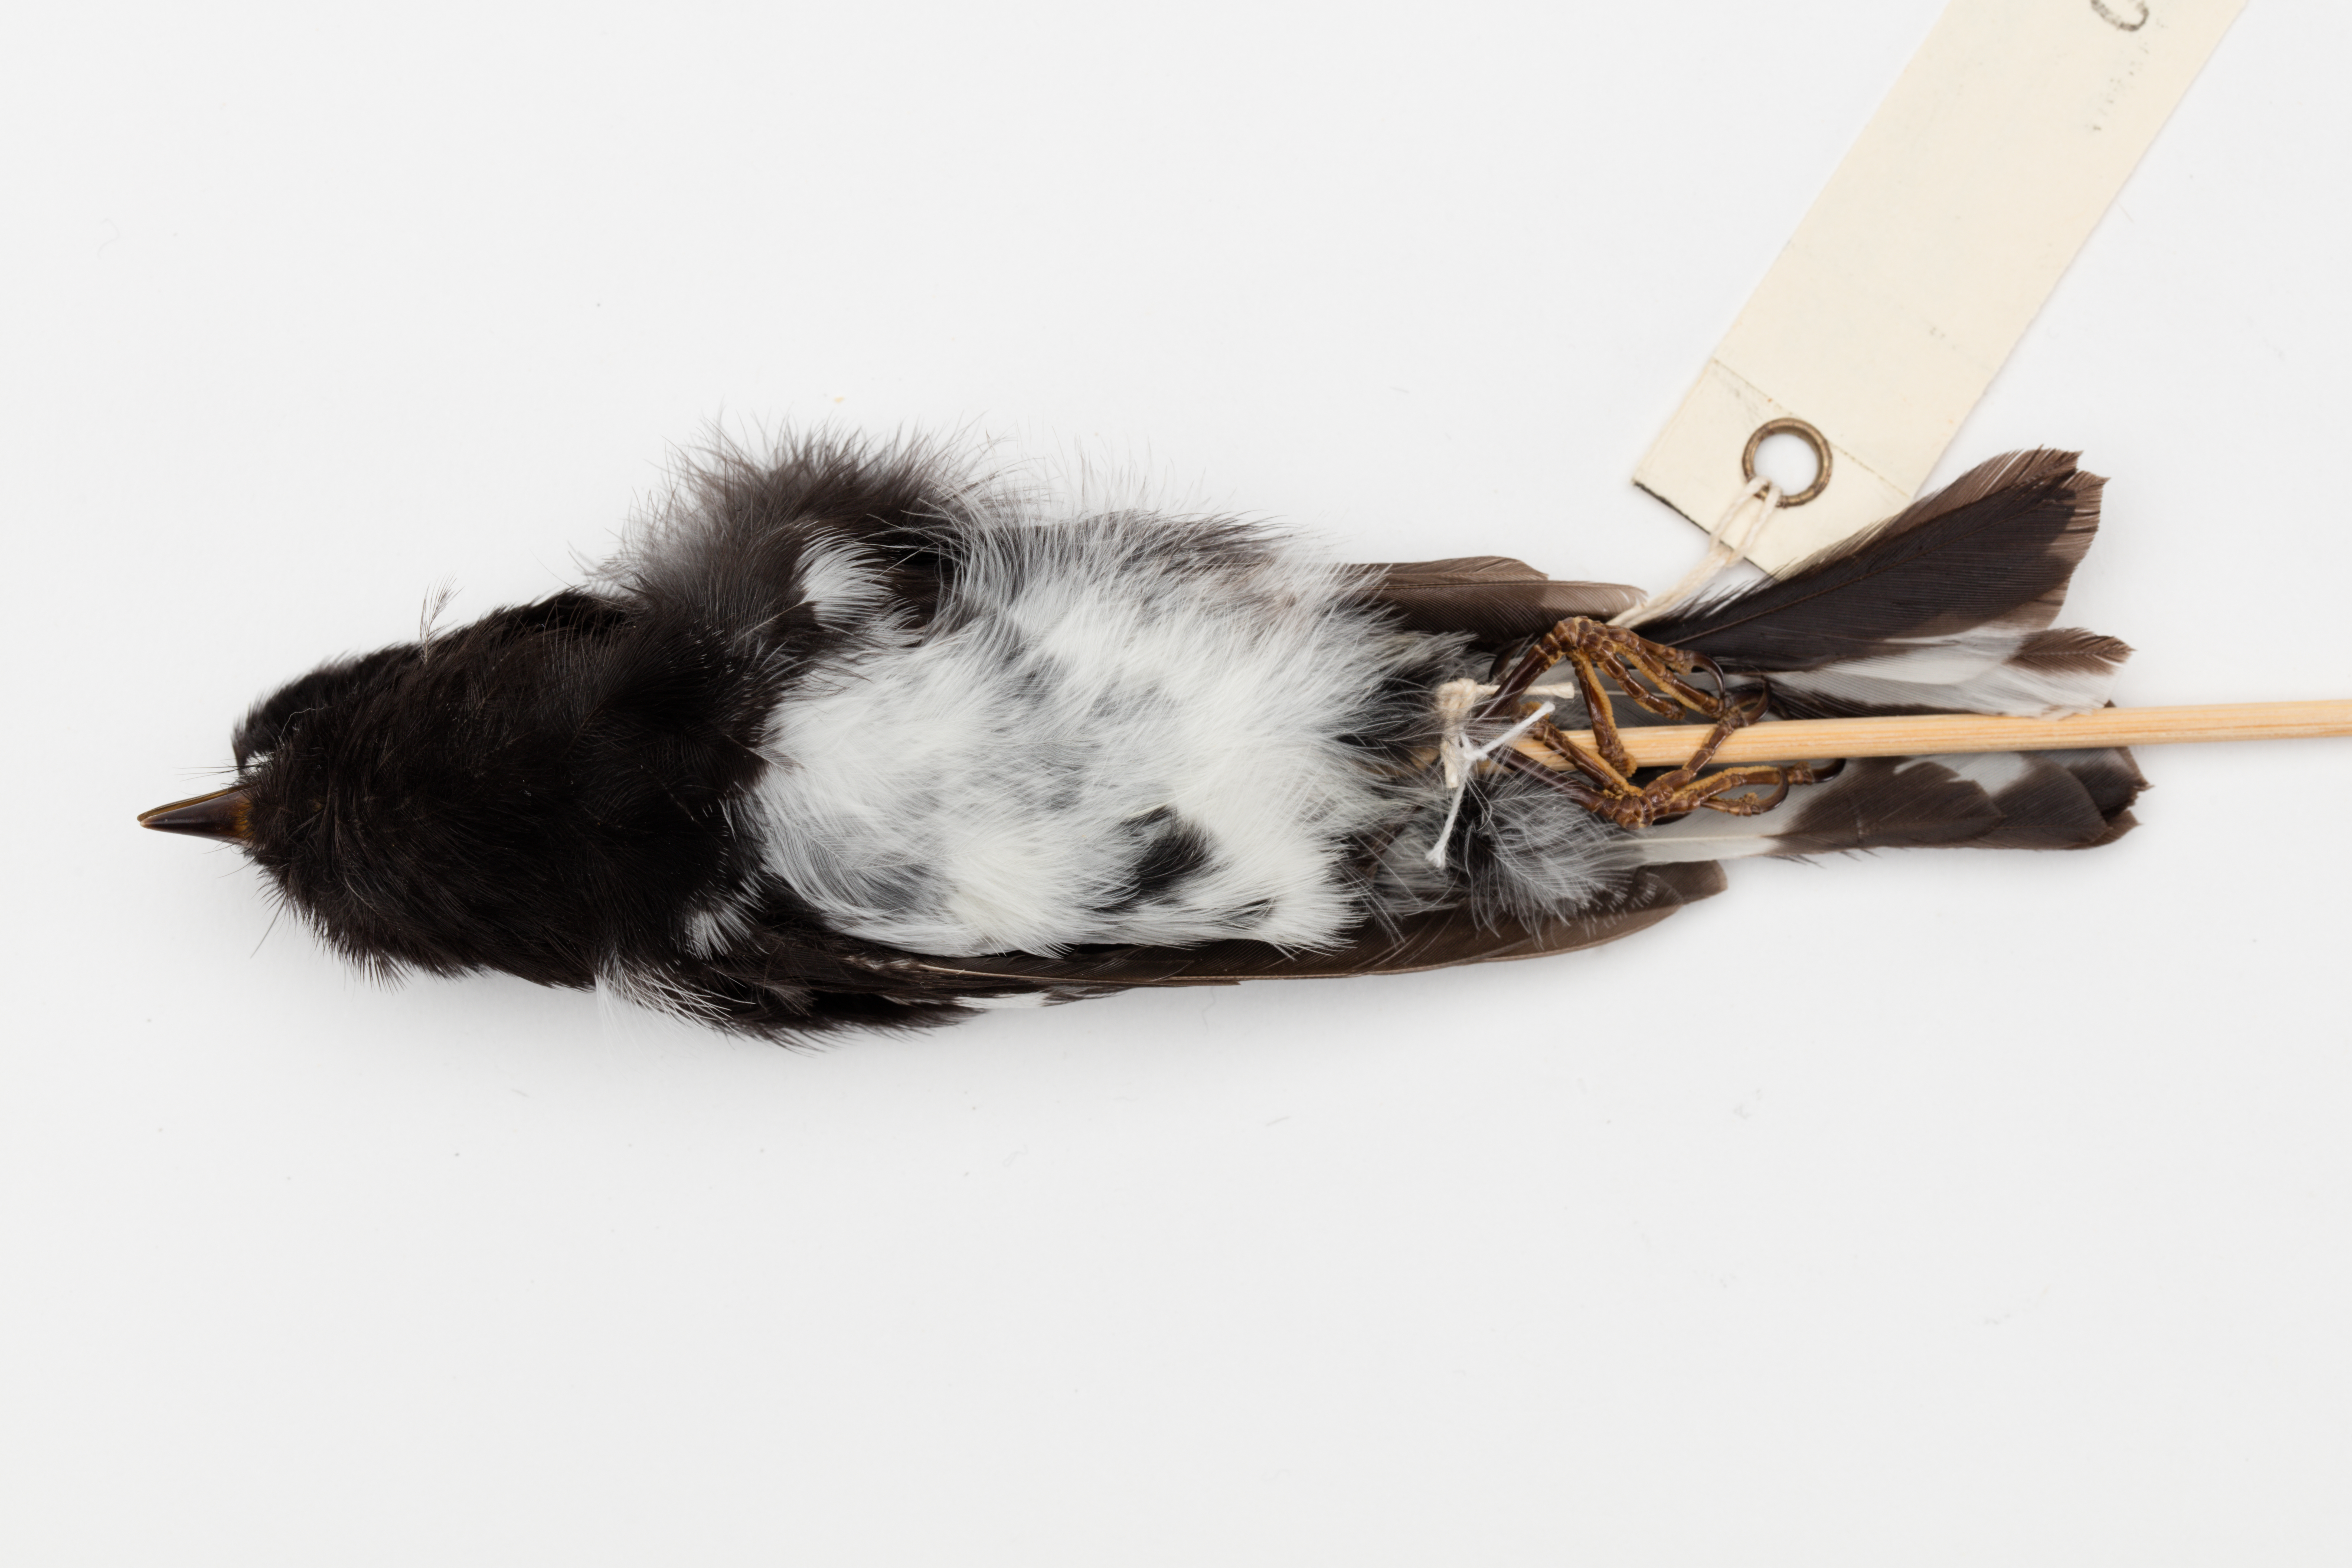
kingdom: Animalia
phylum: Chordata
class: Aves
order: Passeriformes
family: Petroicidae
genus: Petroica
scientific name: Petroica macrocephala
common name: Tomtit
